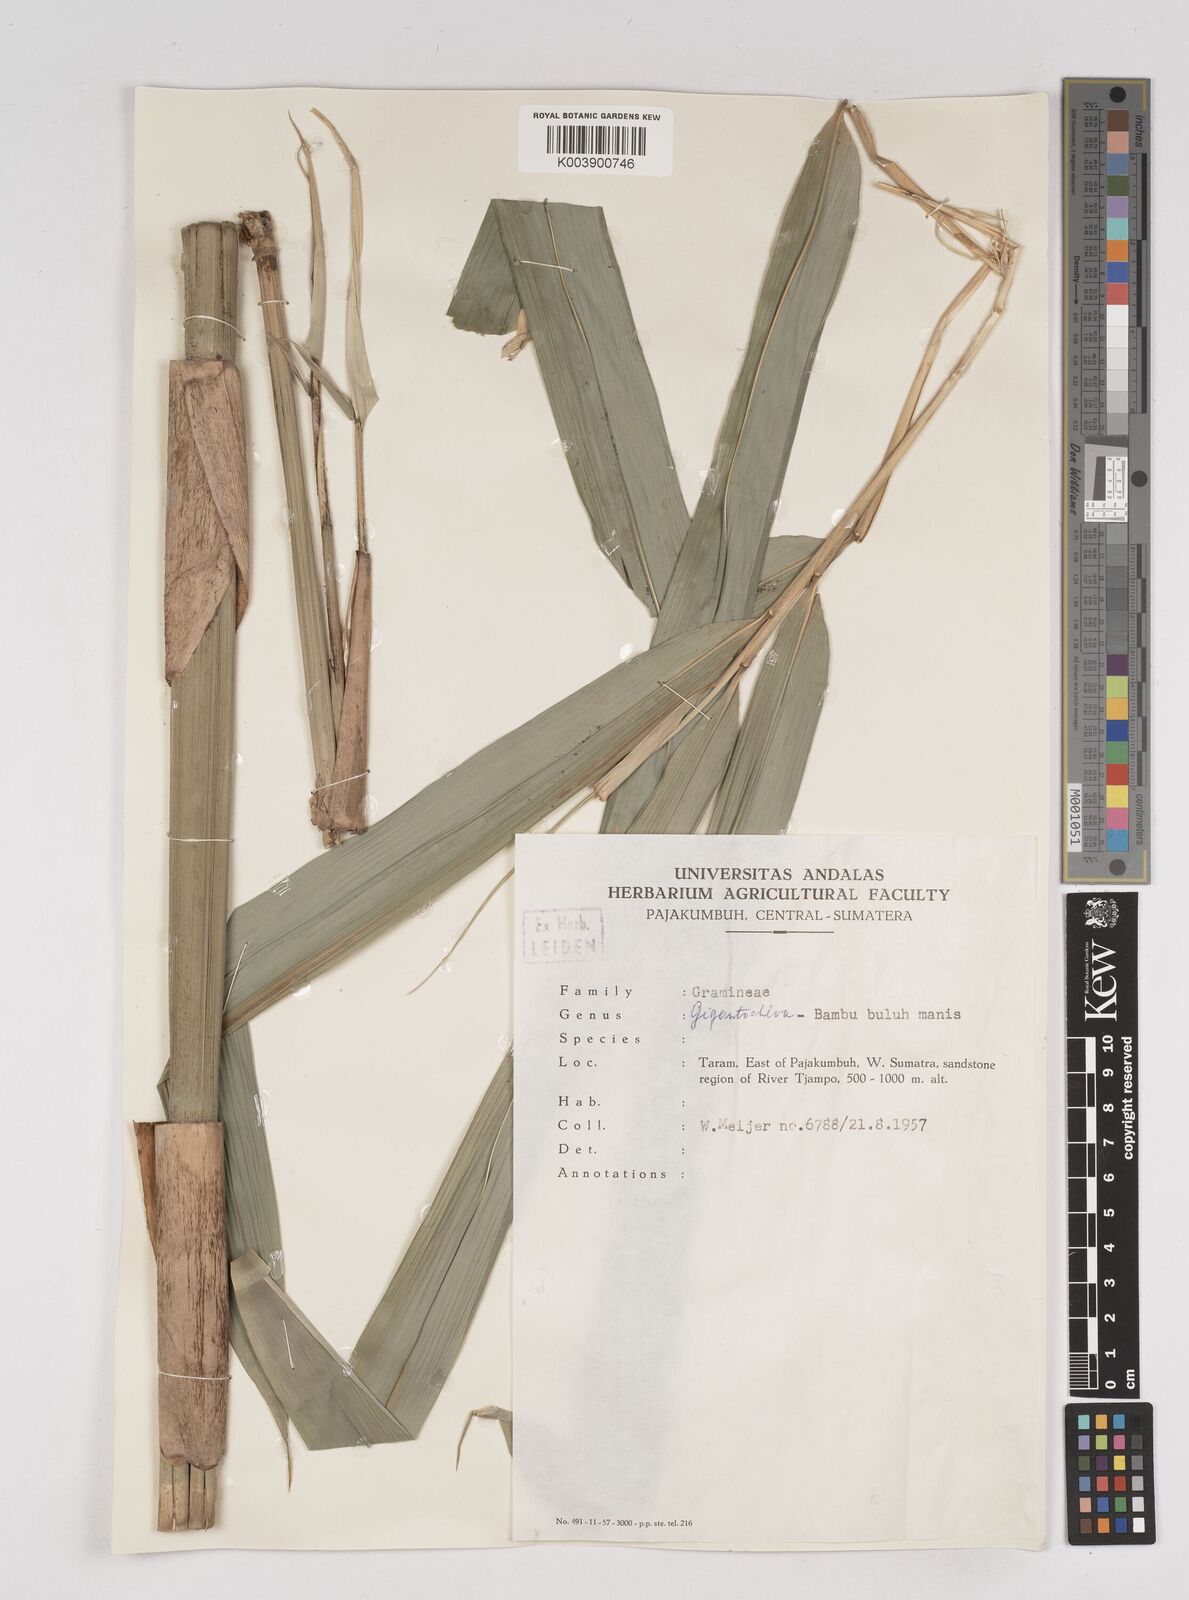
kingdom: Plantae
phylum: Tracheophyta
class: Liliopsida
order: Poales
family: Poaceae
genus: Gigantochloa
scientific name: Gigantochloa
